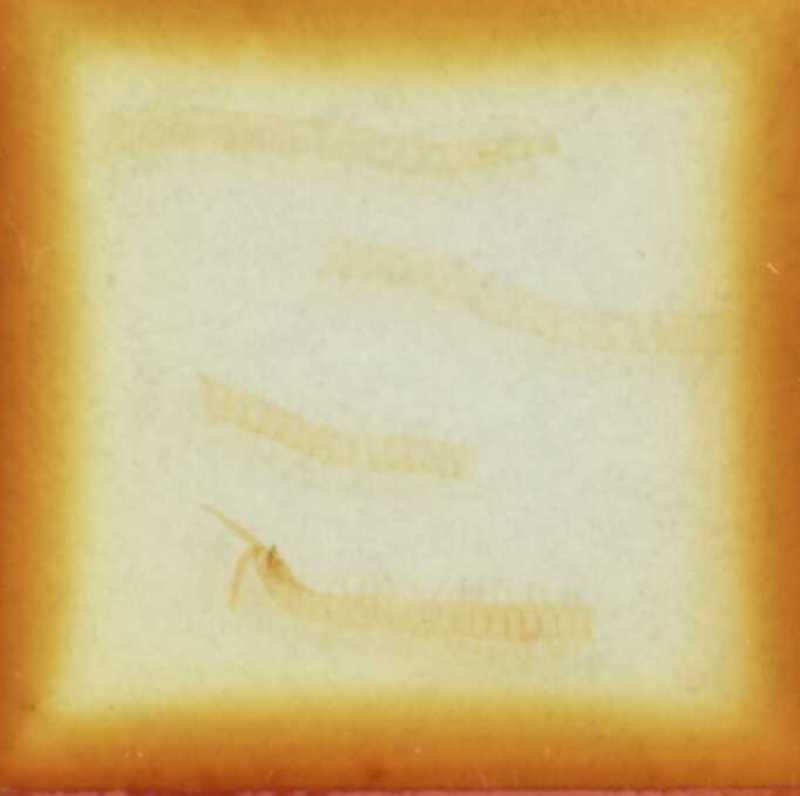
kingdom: Animalia
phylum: Arthropoda
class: Chilopoda
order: Geophilomorpha
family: Geophilidae
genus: Clinopodes
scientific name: Clinopodes flavidus
